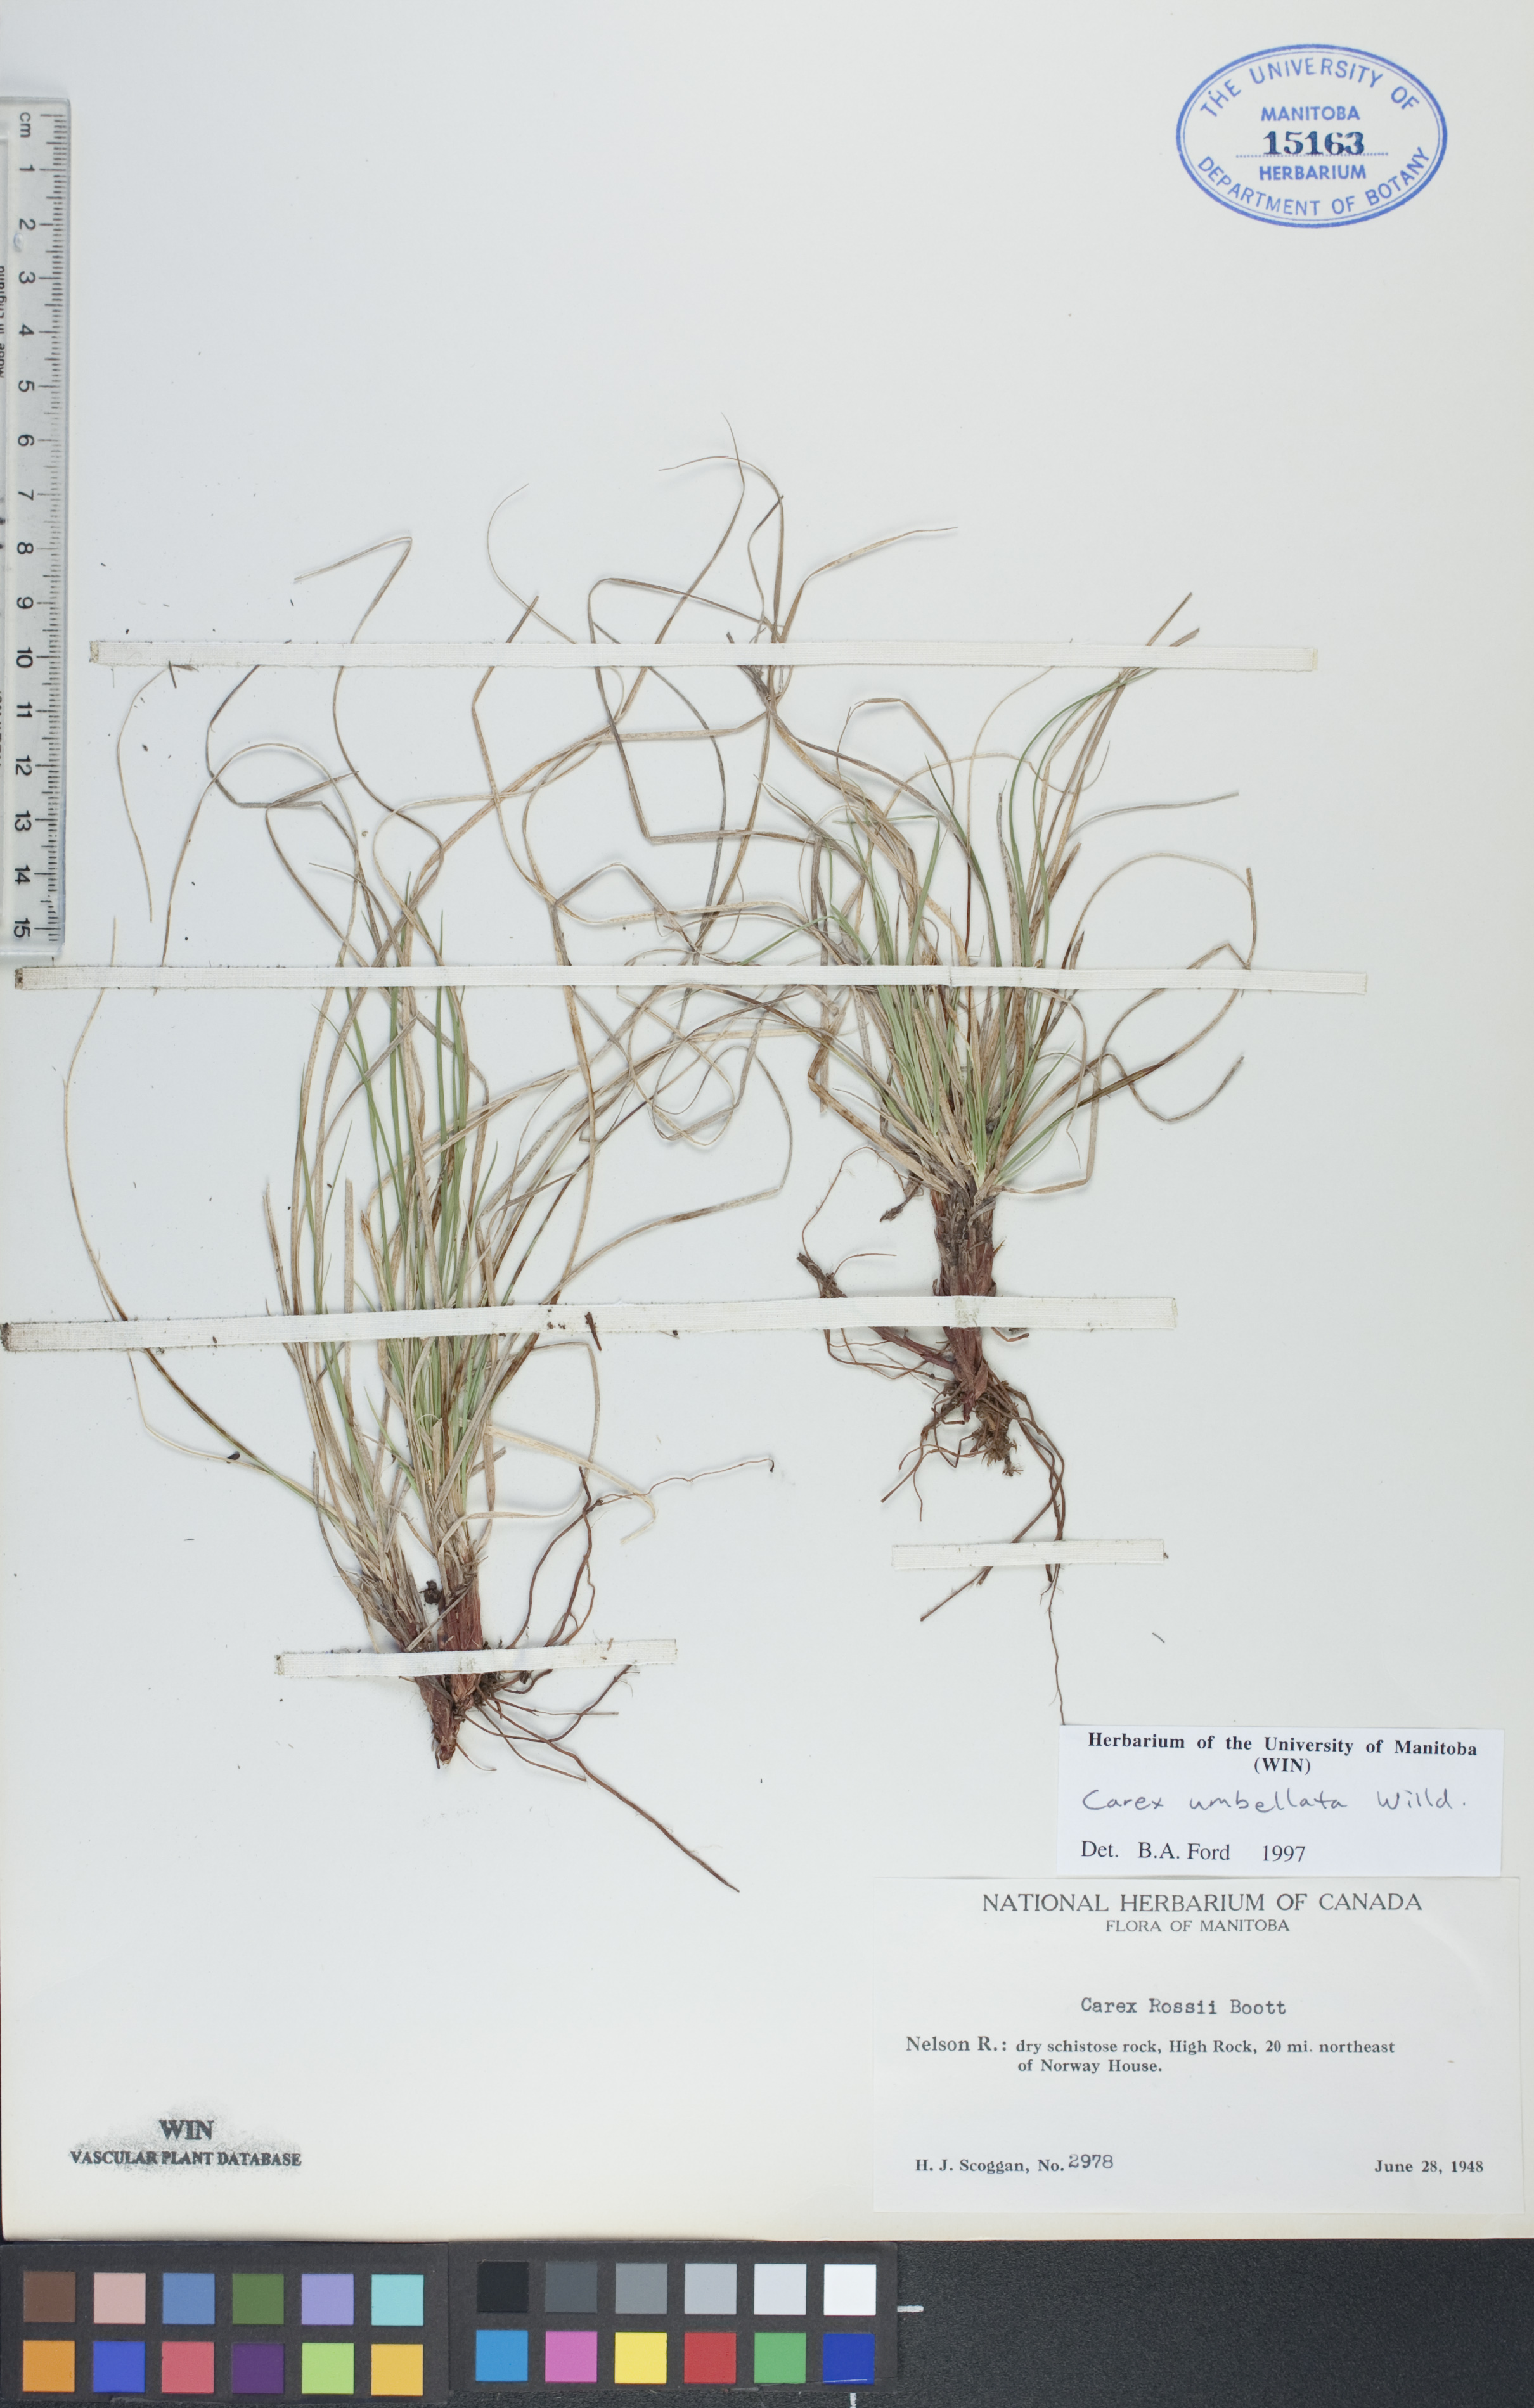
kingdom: Plantae
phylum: Tracheophyta
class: Liliopsida
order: Poales
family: Cyperaceae
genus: Carex
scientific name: Carex umbellata
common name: Early oak sedge
